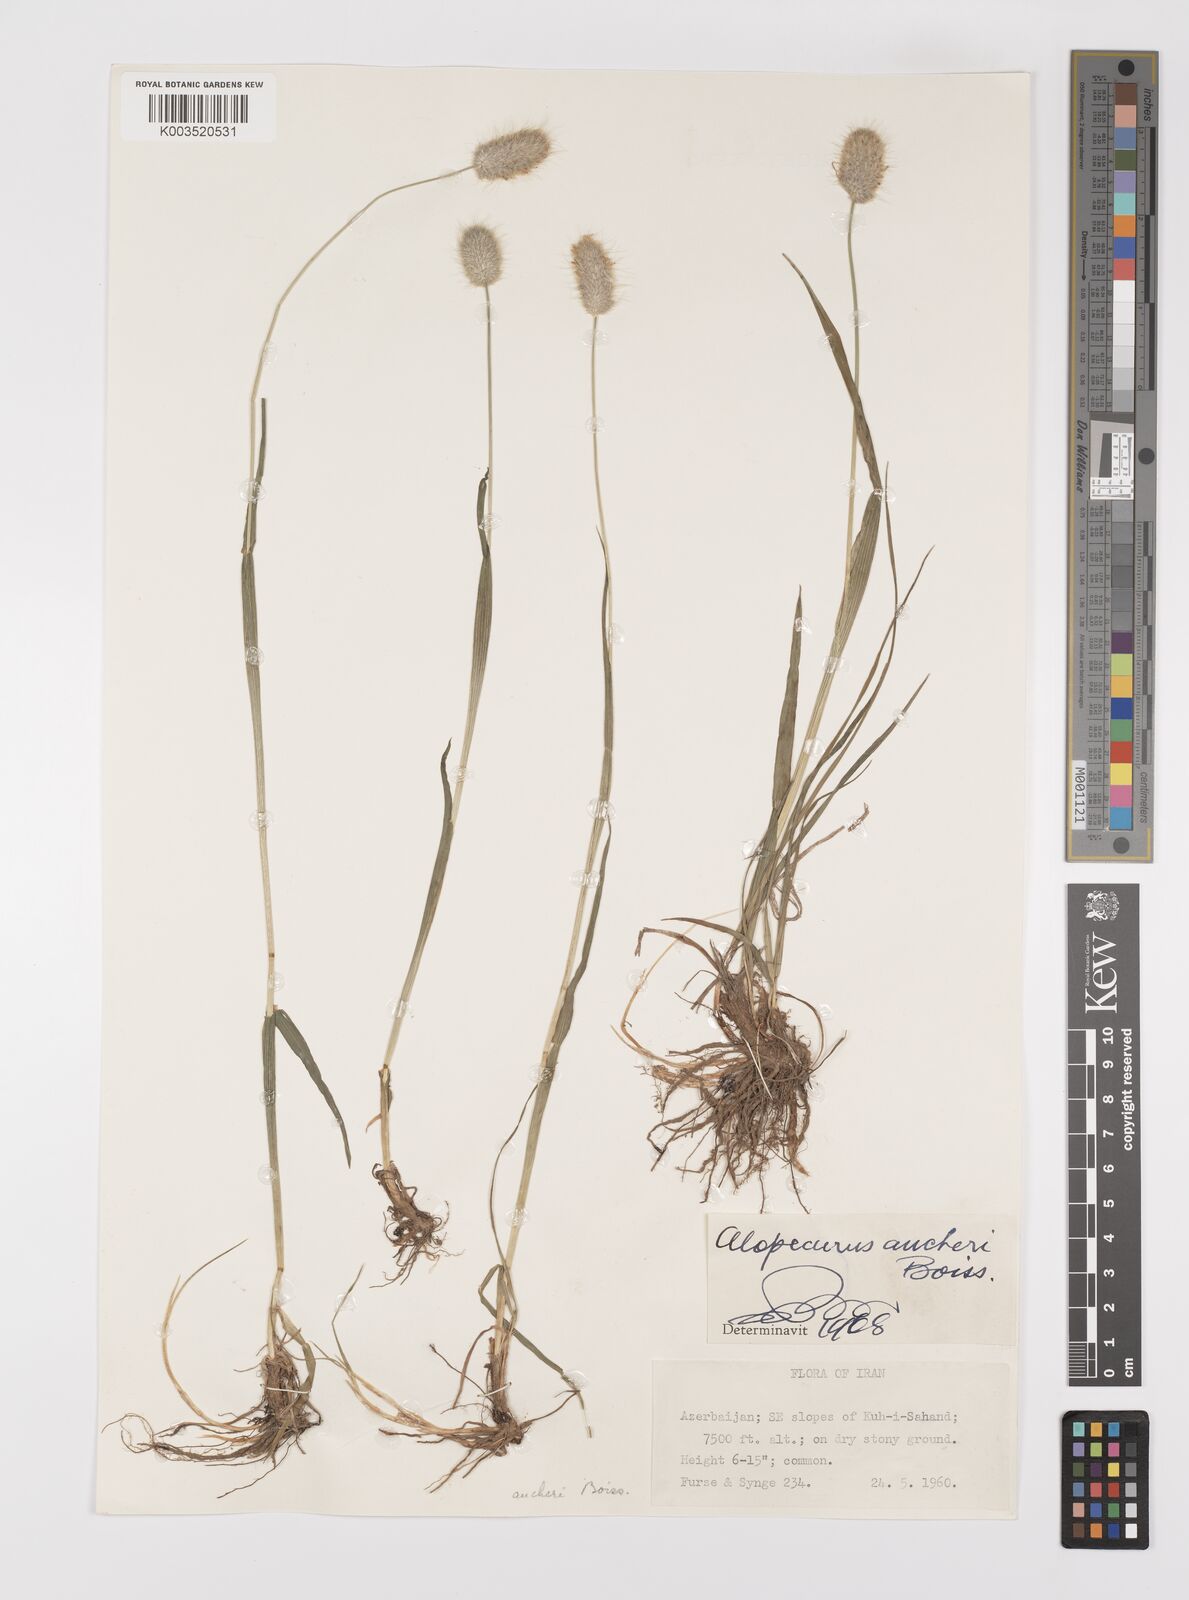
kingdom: Plantae
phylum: Tracheophyta
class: Liliopsida
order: Poales
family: Poaceae
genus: Alopecurus
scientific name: Alopecurus aucheri
